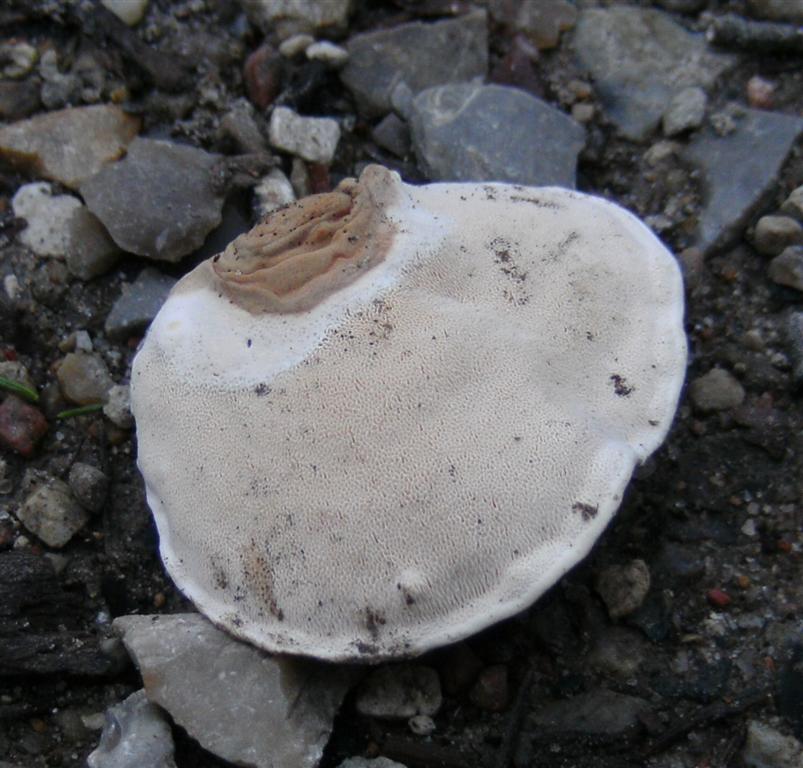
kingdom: Fungi
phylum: Basidiomycota
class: Agaricomycetes
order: Russulales
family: Bondarzewiaceae
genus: Heterobasidion
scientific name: Heterobasidion annosum
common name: almindelig rodfordærver
